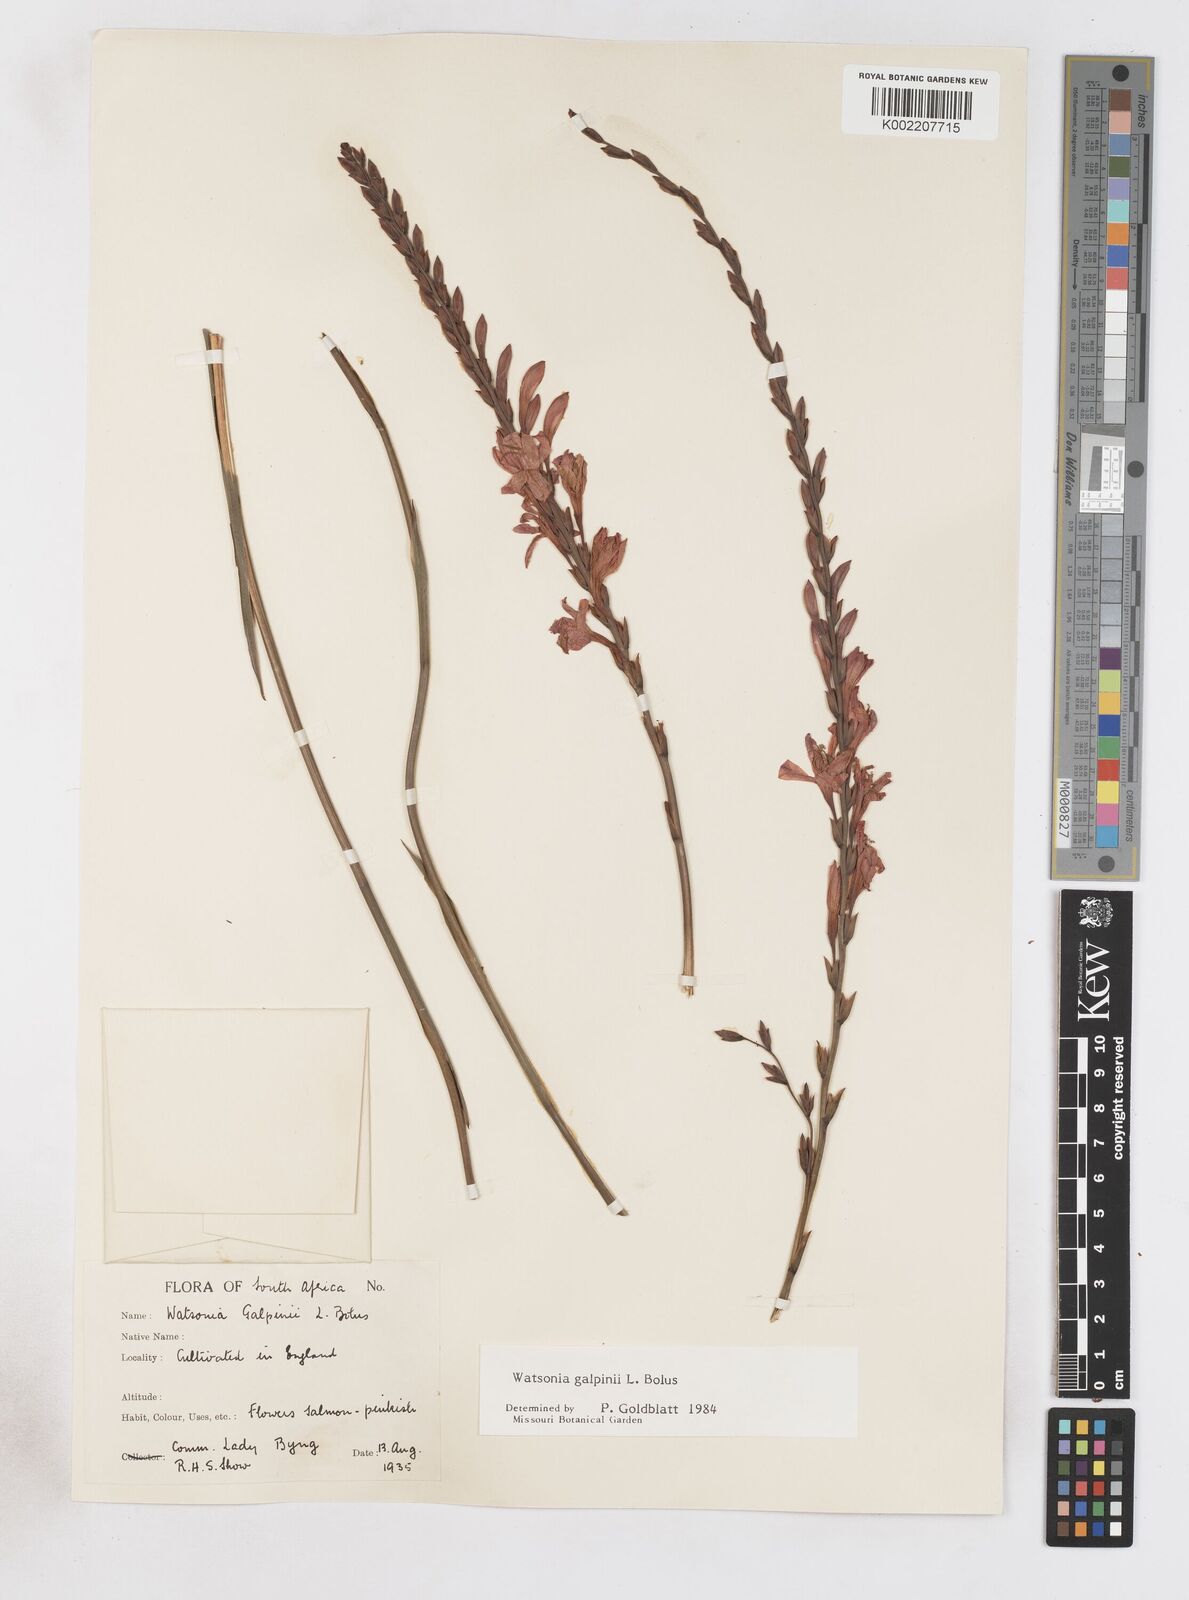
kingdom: Plantae
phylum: Tracheophyta
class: Liliopsida
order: Asparagales
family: Iridaceae
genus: Watsonia
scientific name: Watsonia galpinii
